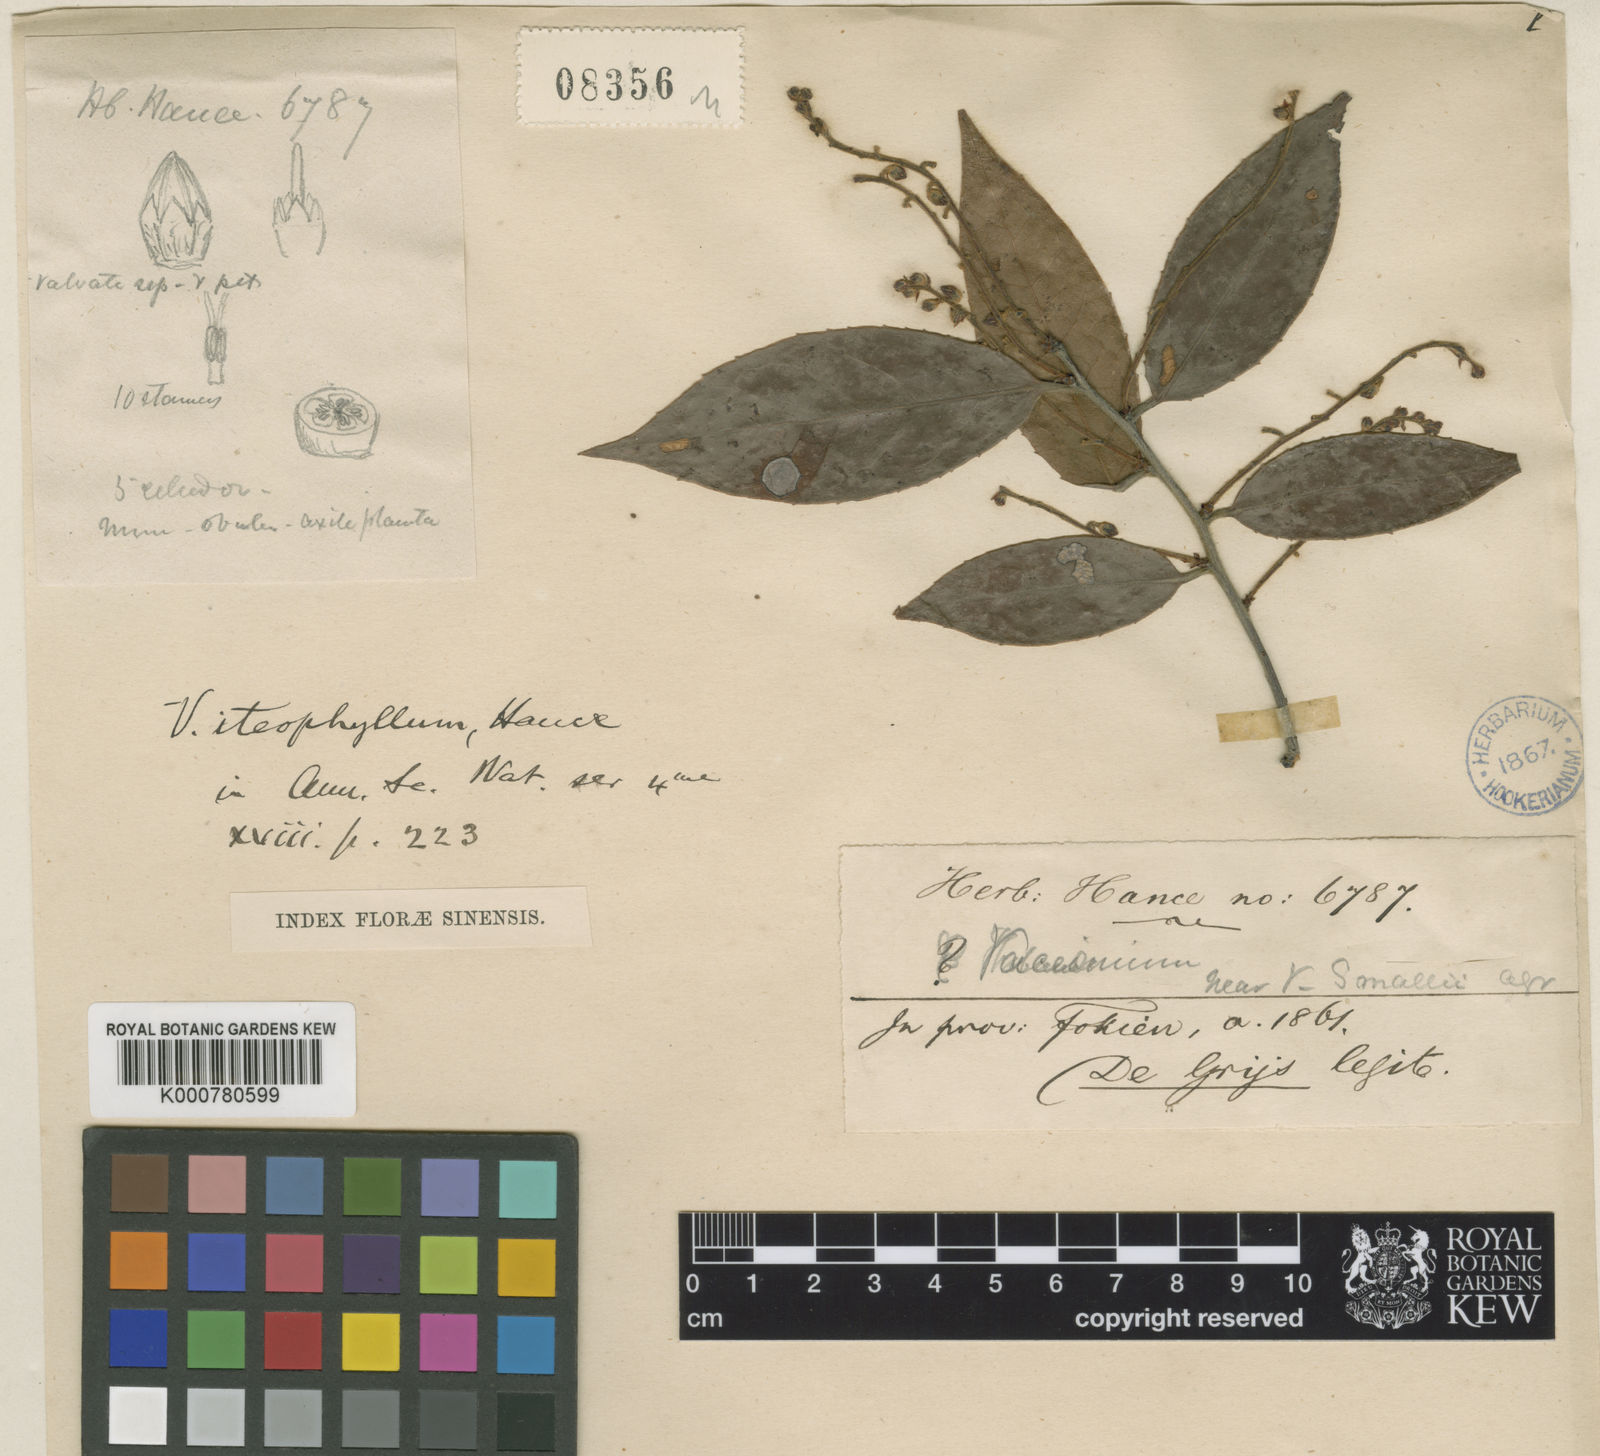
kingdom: Plantae
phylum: Tracheophyta
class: Magnoliopsida
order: Ericales
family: Ericaceae
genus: Vaccinium
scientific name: Vaccinium iteophyllum
